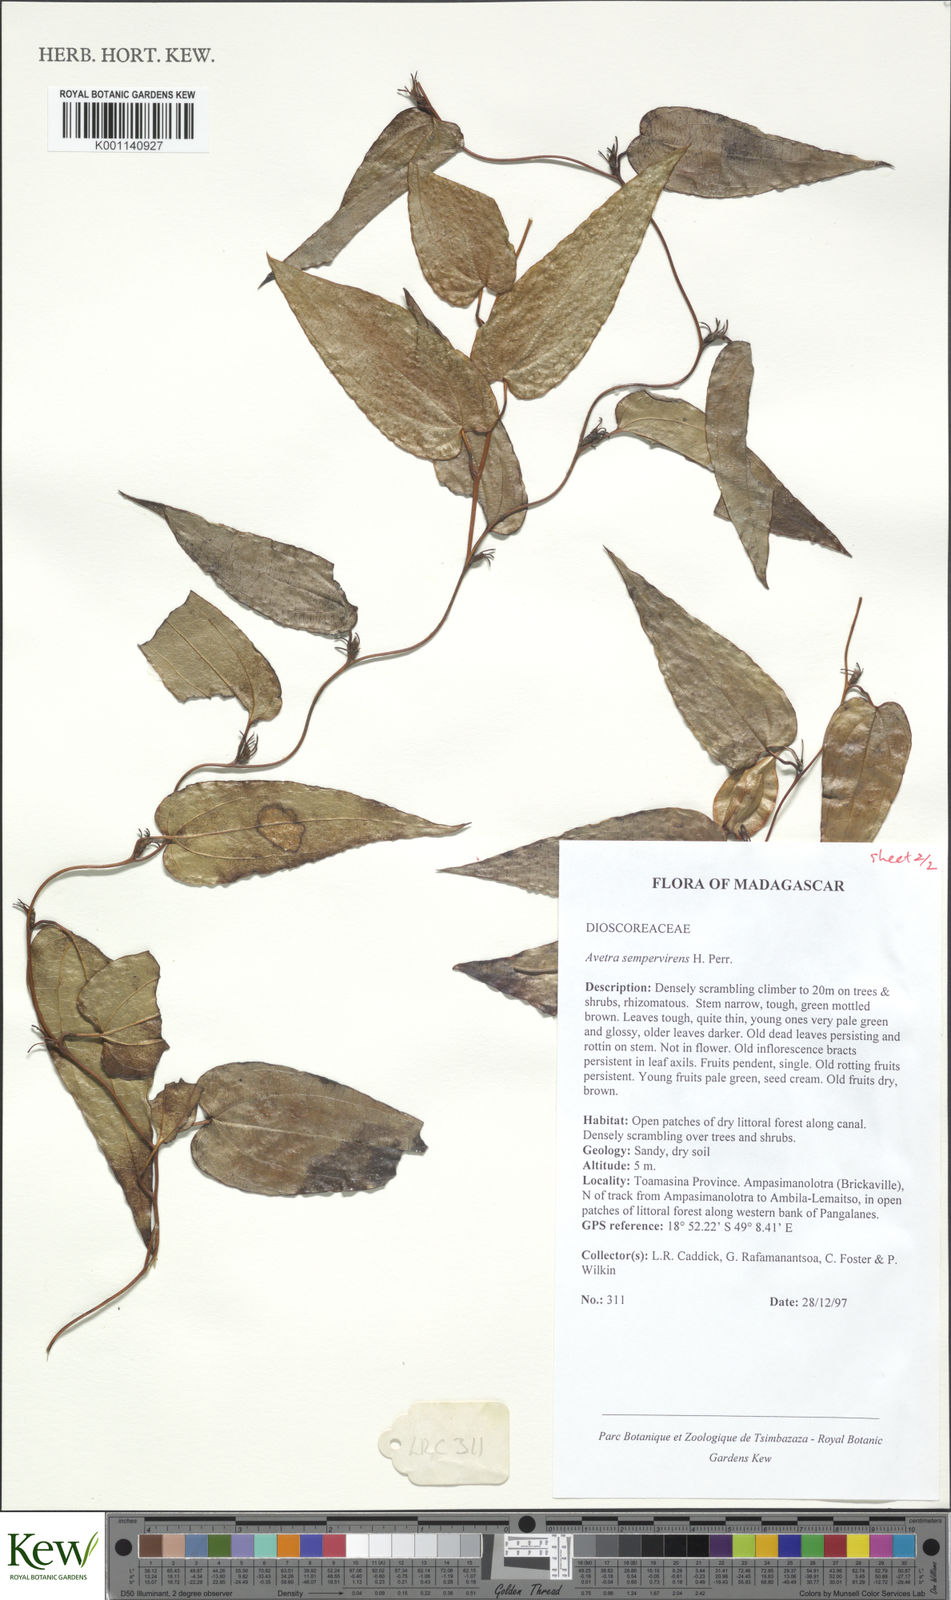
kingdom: Plantae
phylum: Tracheophyta
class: Liliopsida
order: Dioscoreales
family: Dioscoreaceae
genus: Trichopus
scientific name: Trichopus sempervirens
